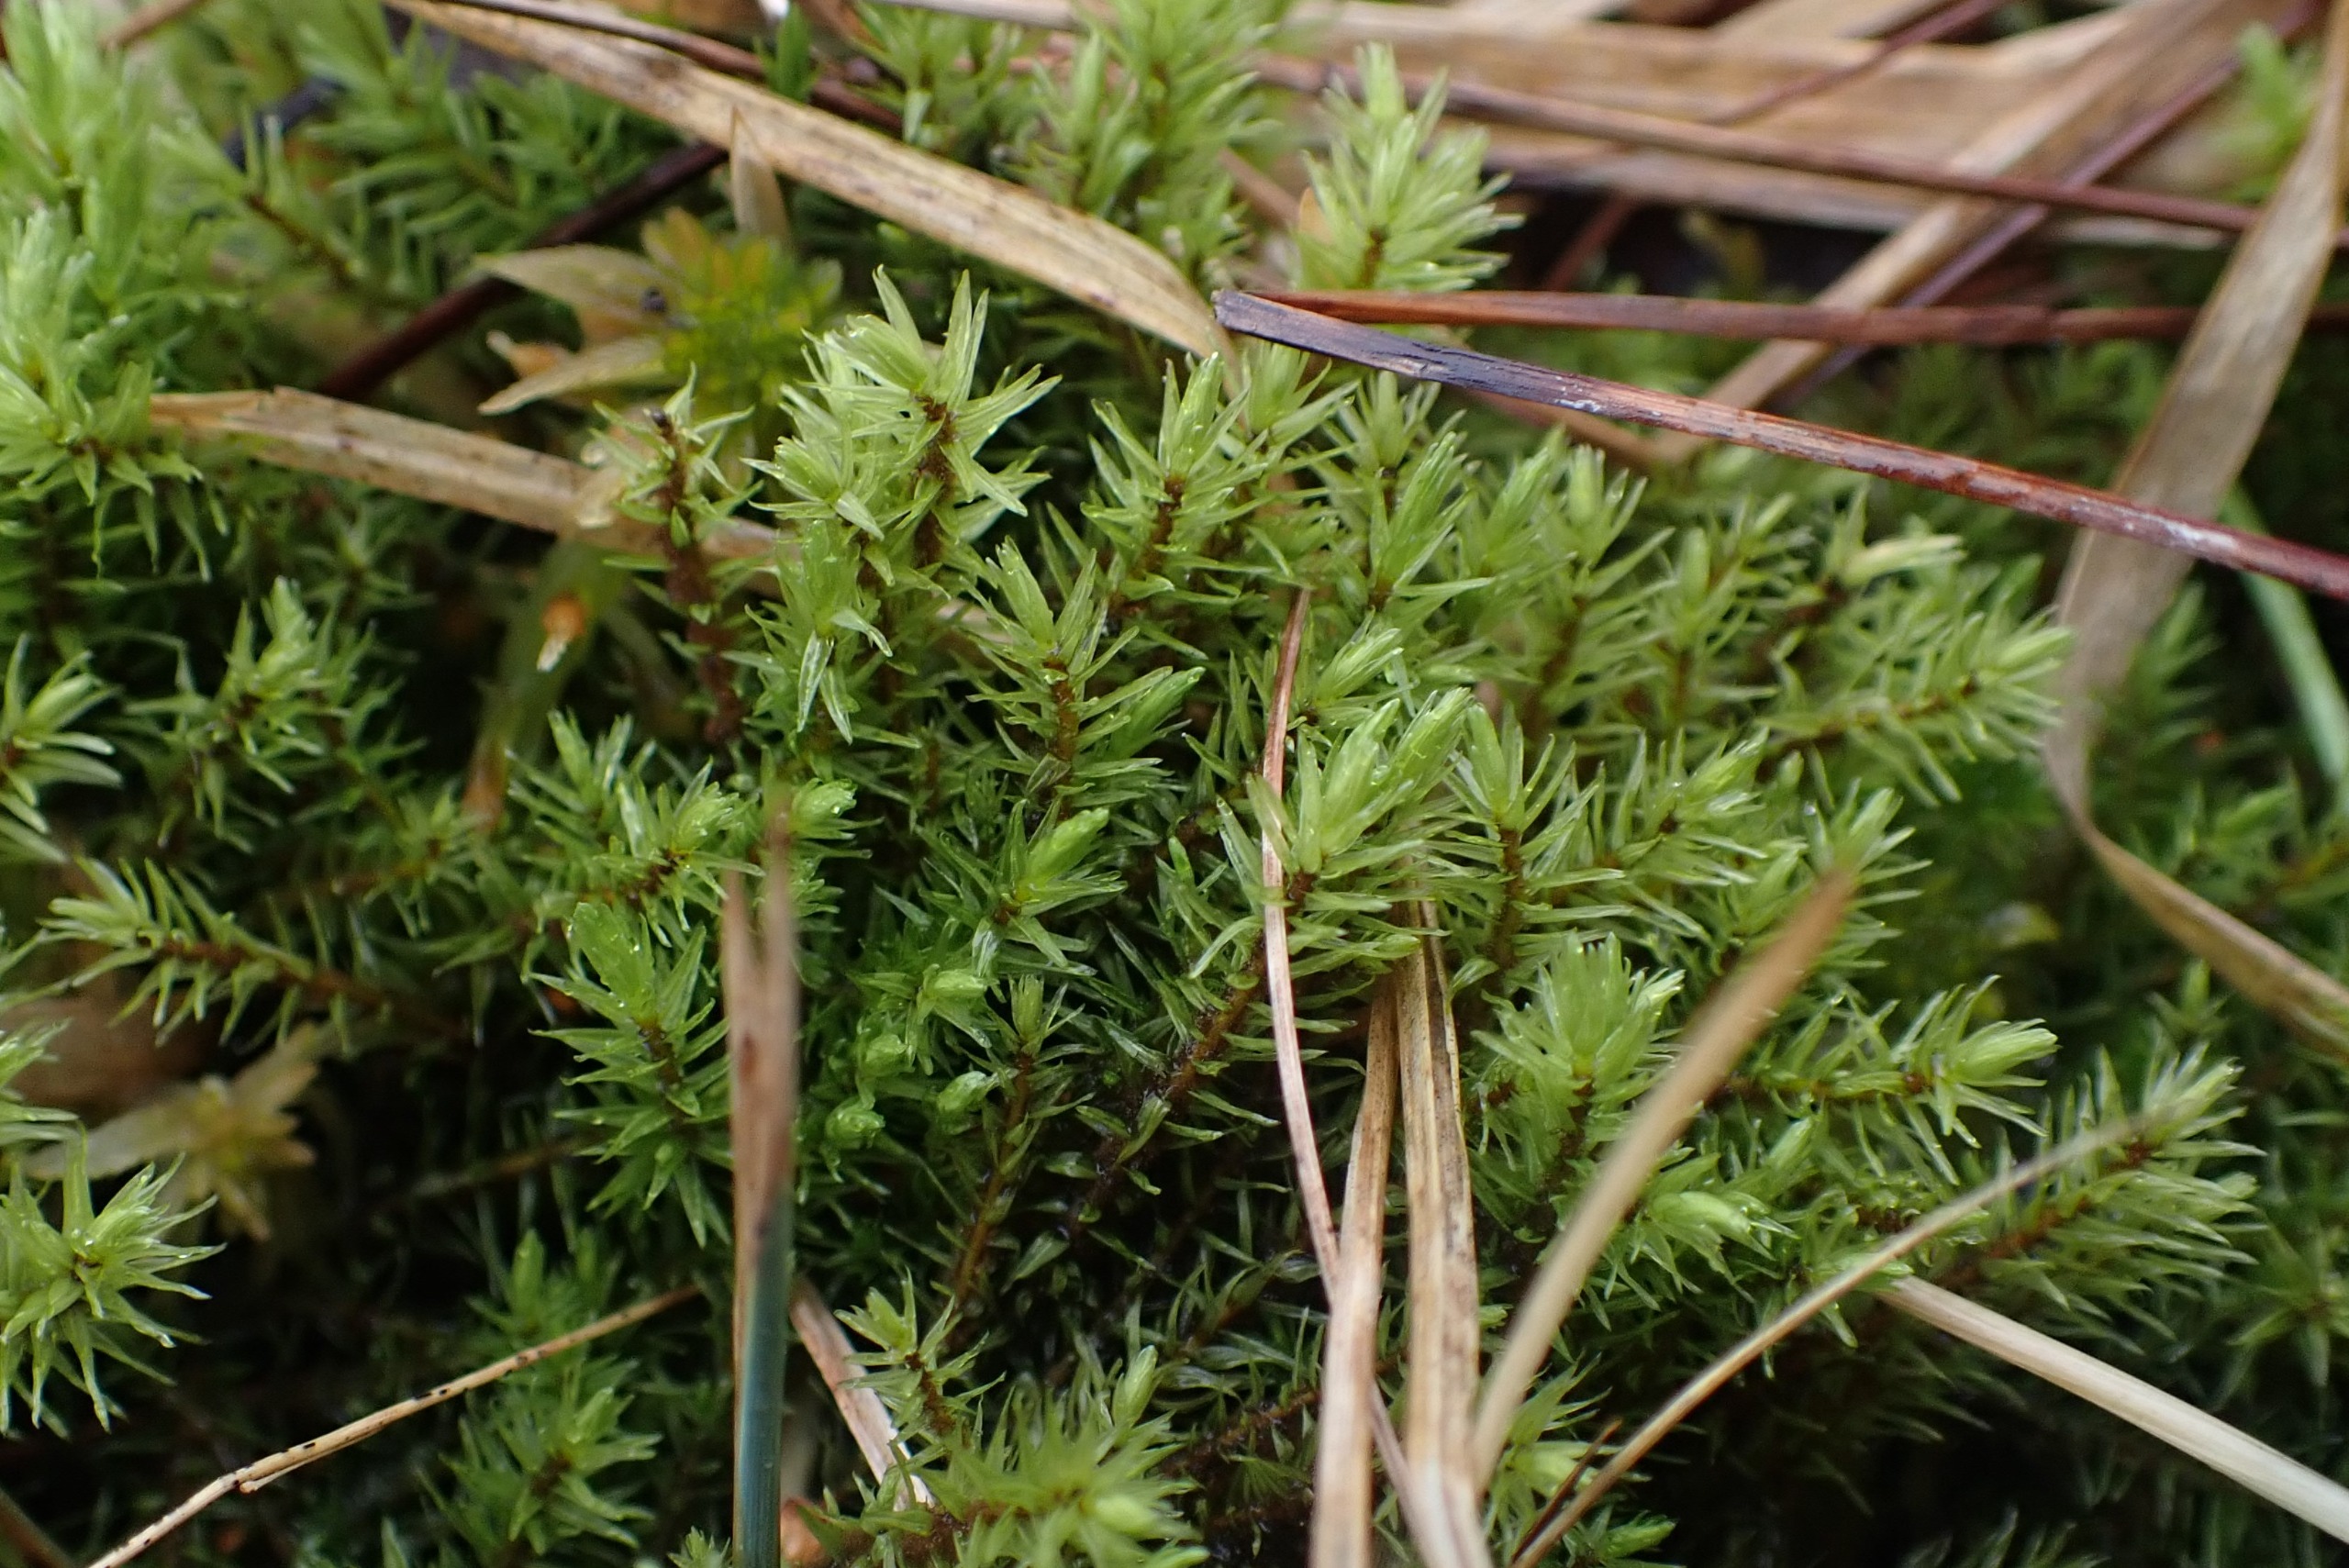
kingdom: Plantae
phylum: Bryophyta
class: Bryopsida
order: Aulacomniales
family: Aulacomniaceae
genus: Aulacomnium
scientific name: Aulacomnium palustre
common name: Almindelig filtmos
